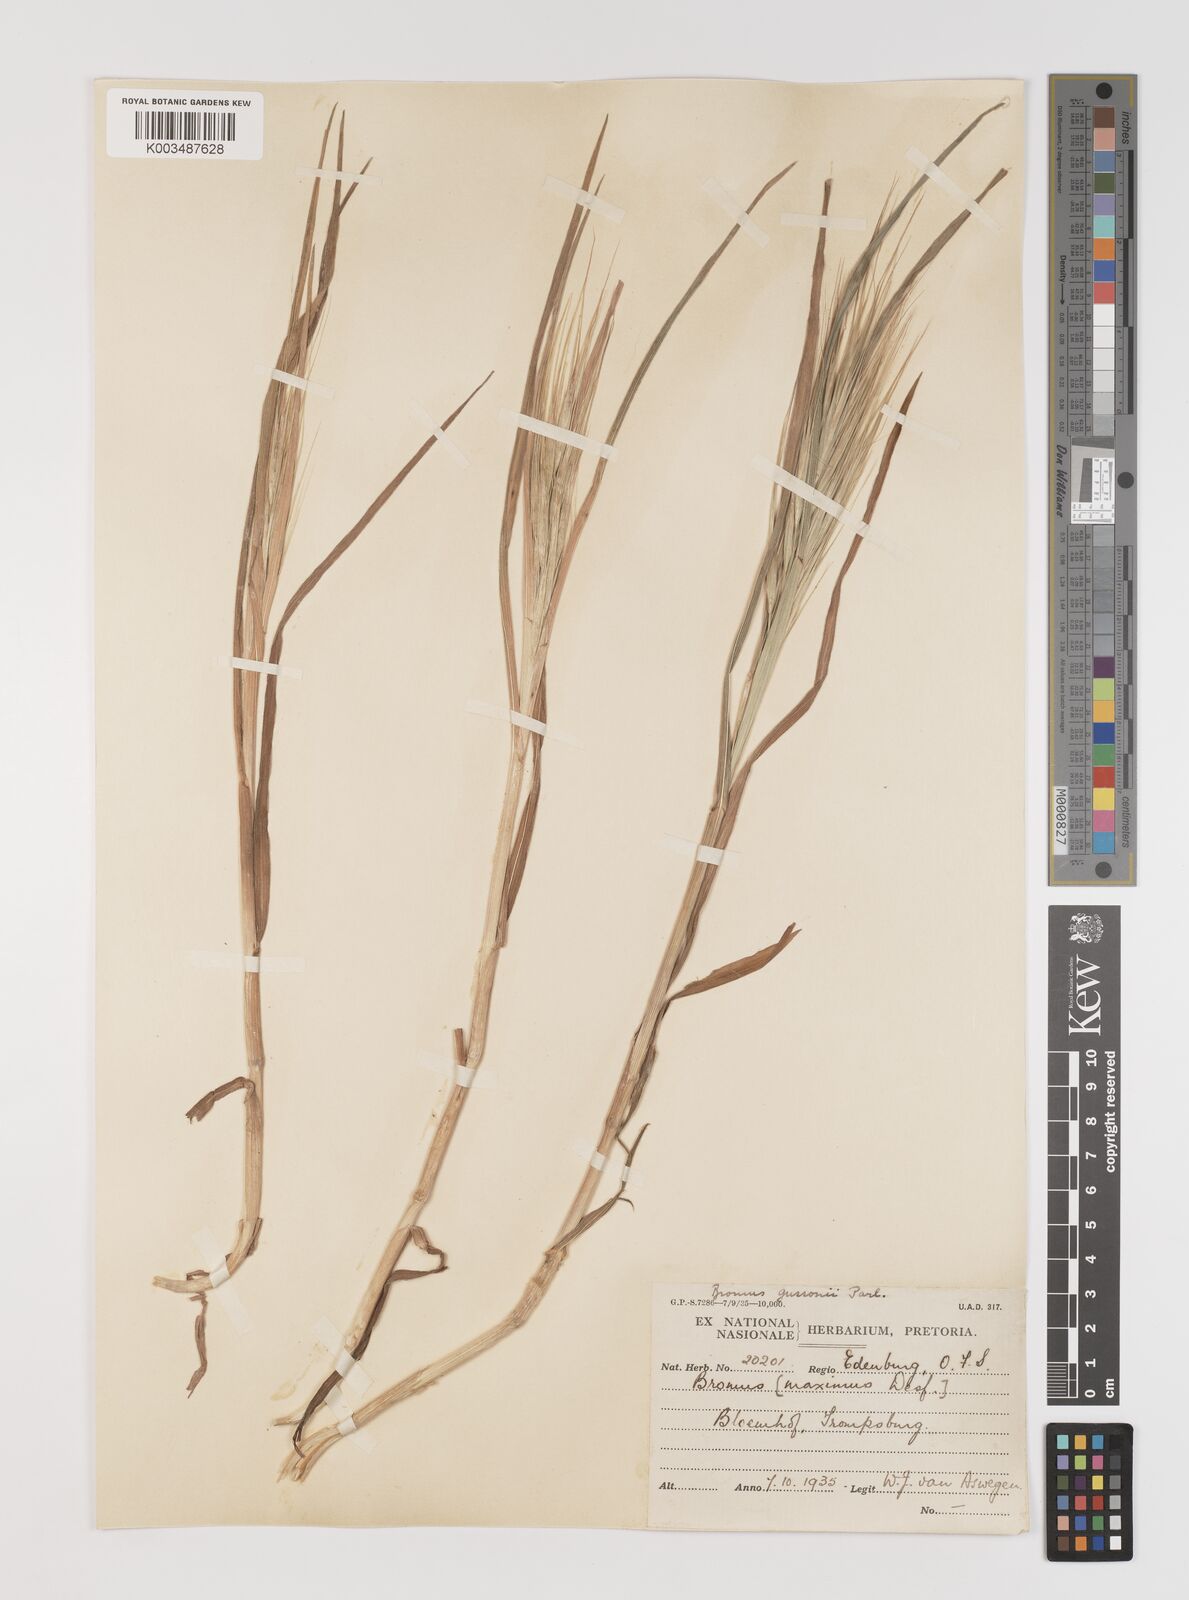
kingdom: Plantae
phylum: Tracheophyta
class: Liliopsida
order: Poales
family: Poaceae
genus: Bromus
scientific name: Bromus diandrus
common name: Ripgut brome
